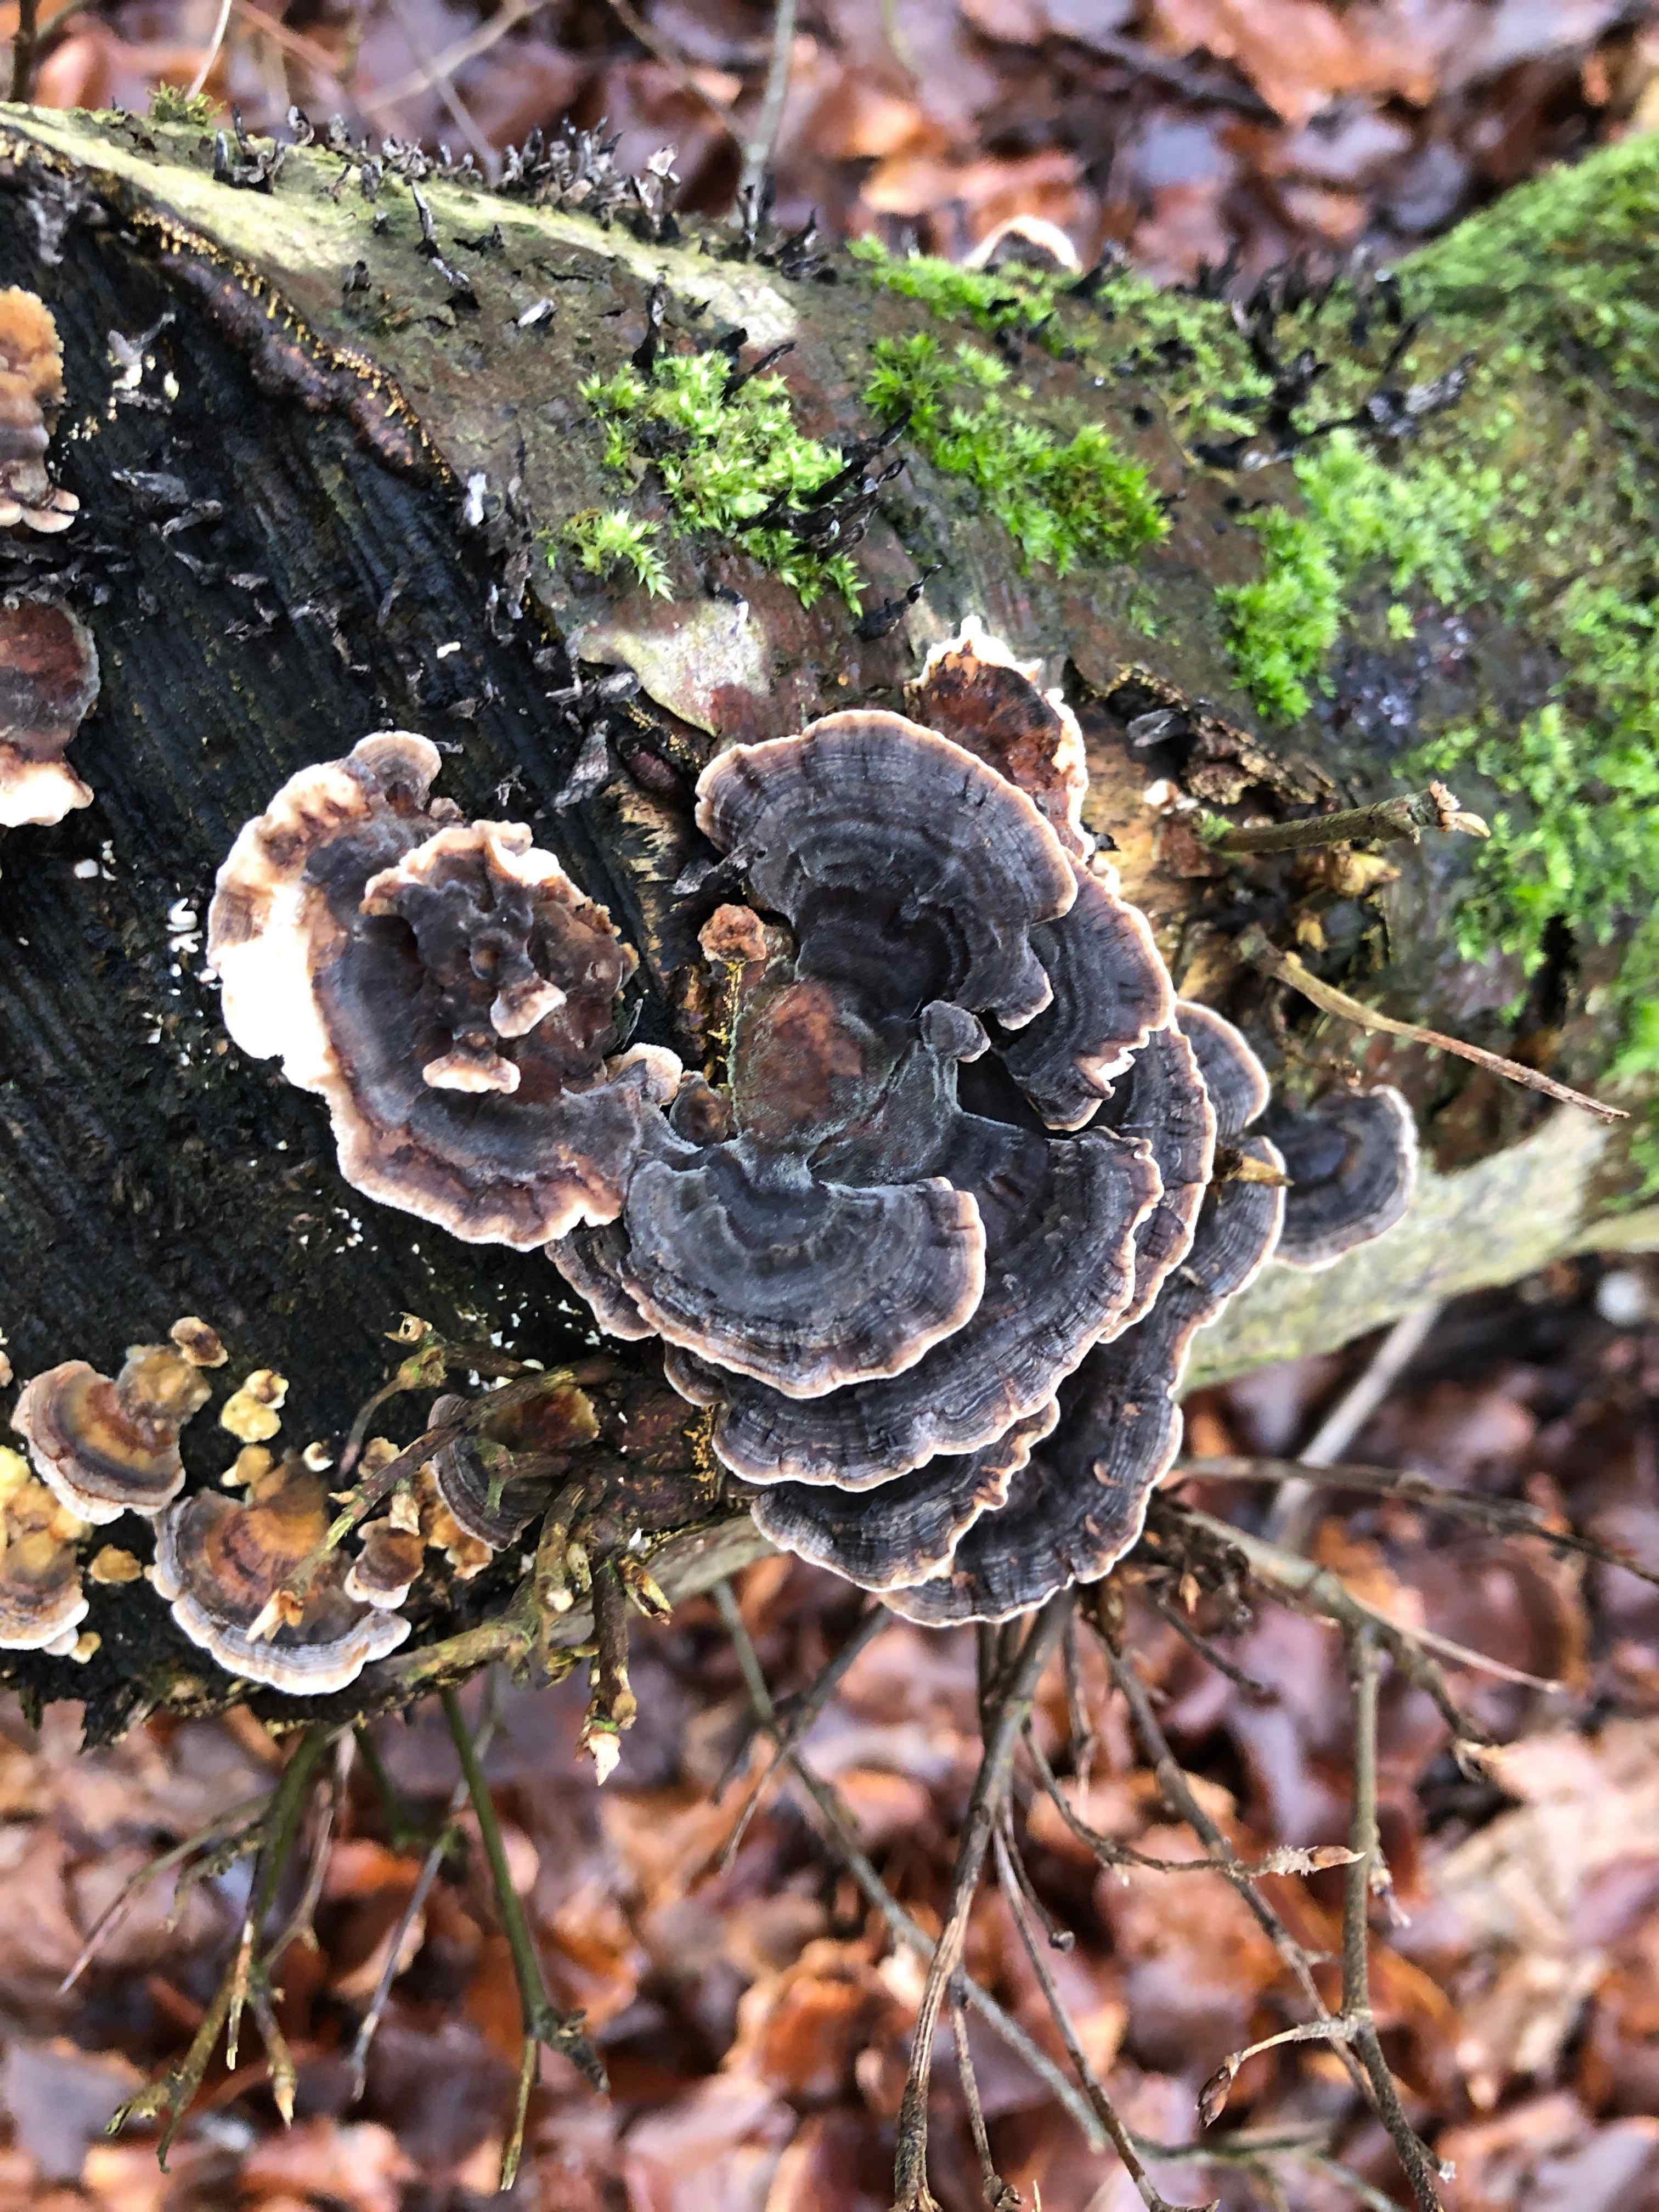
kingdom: Fungi
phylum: Basidiomycota
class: Agaricomycetes
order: Polyporales
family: Polyporaceae
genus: Trametes
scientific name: Trametes versicolor
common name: broget læderporesvamp
